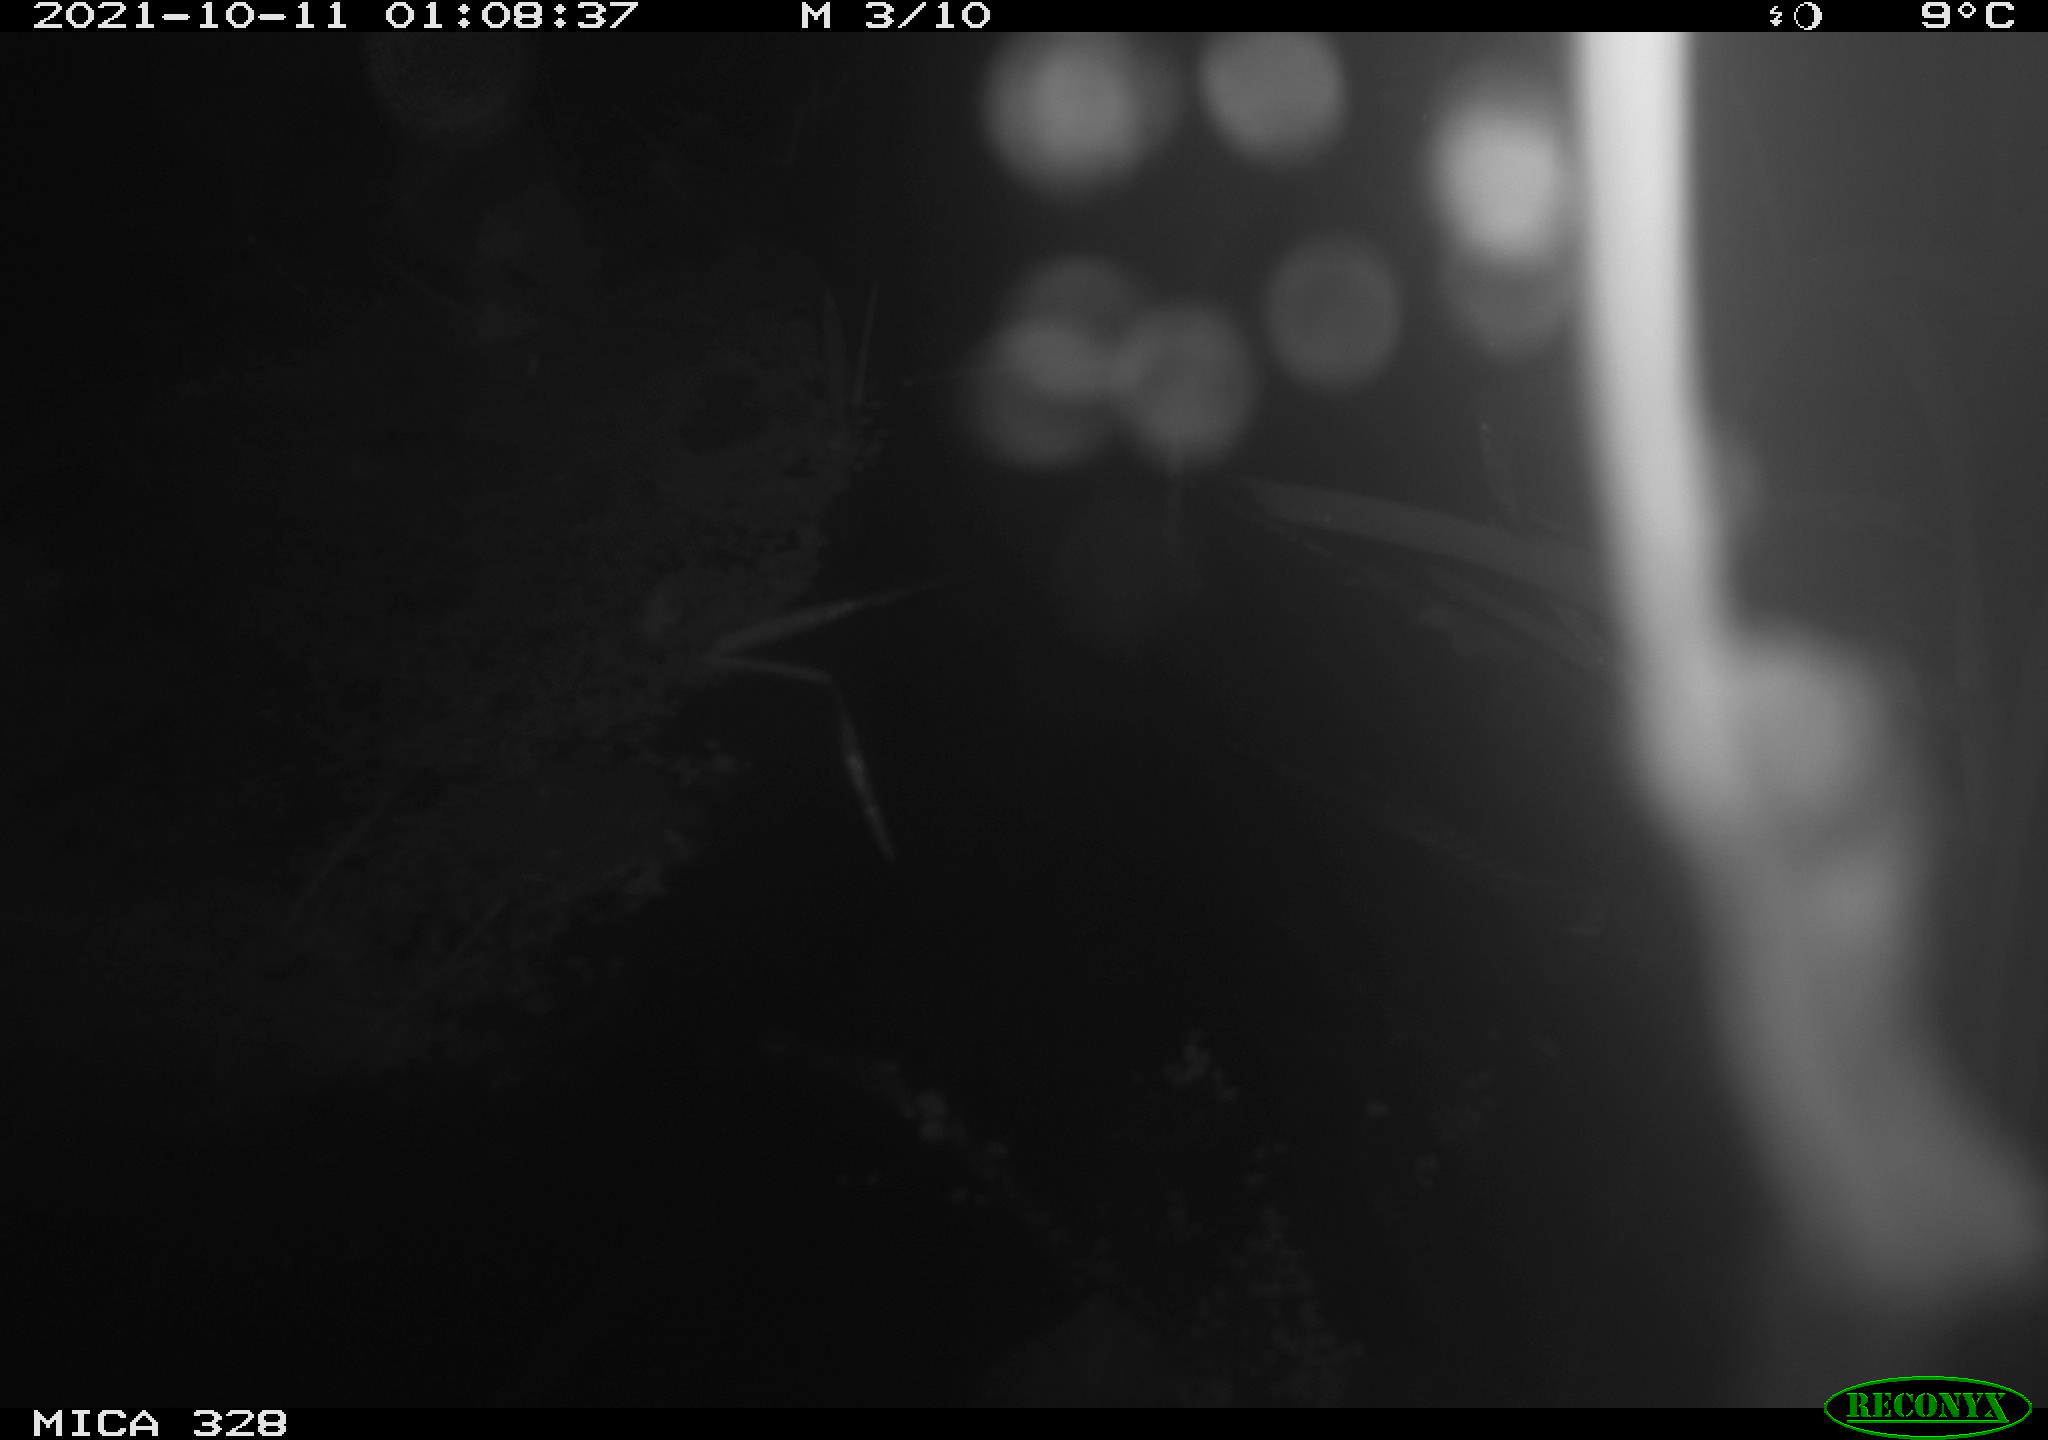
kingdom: Animalia
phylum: Chordata
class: Mammalia
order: Rodentia
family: Cricetidae
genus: Ondatra
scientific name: Ondatra zibethicus
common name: Muskrat
